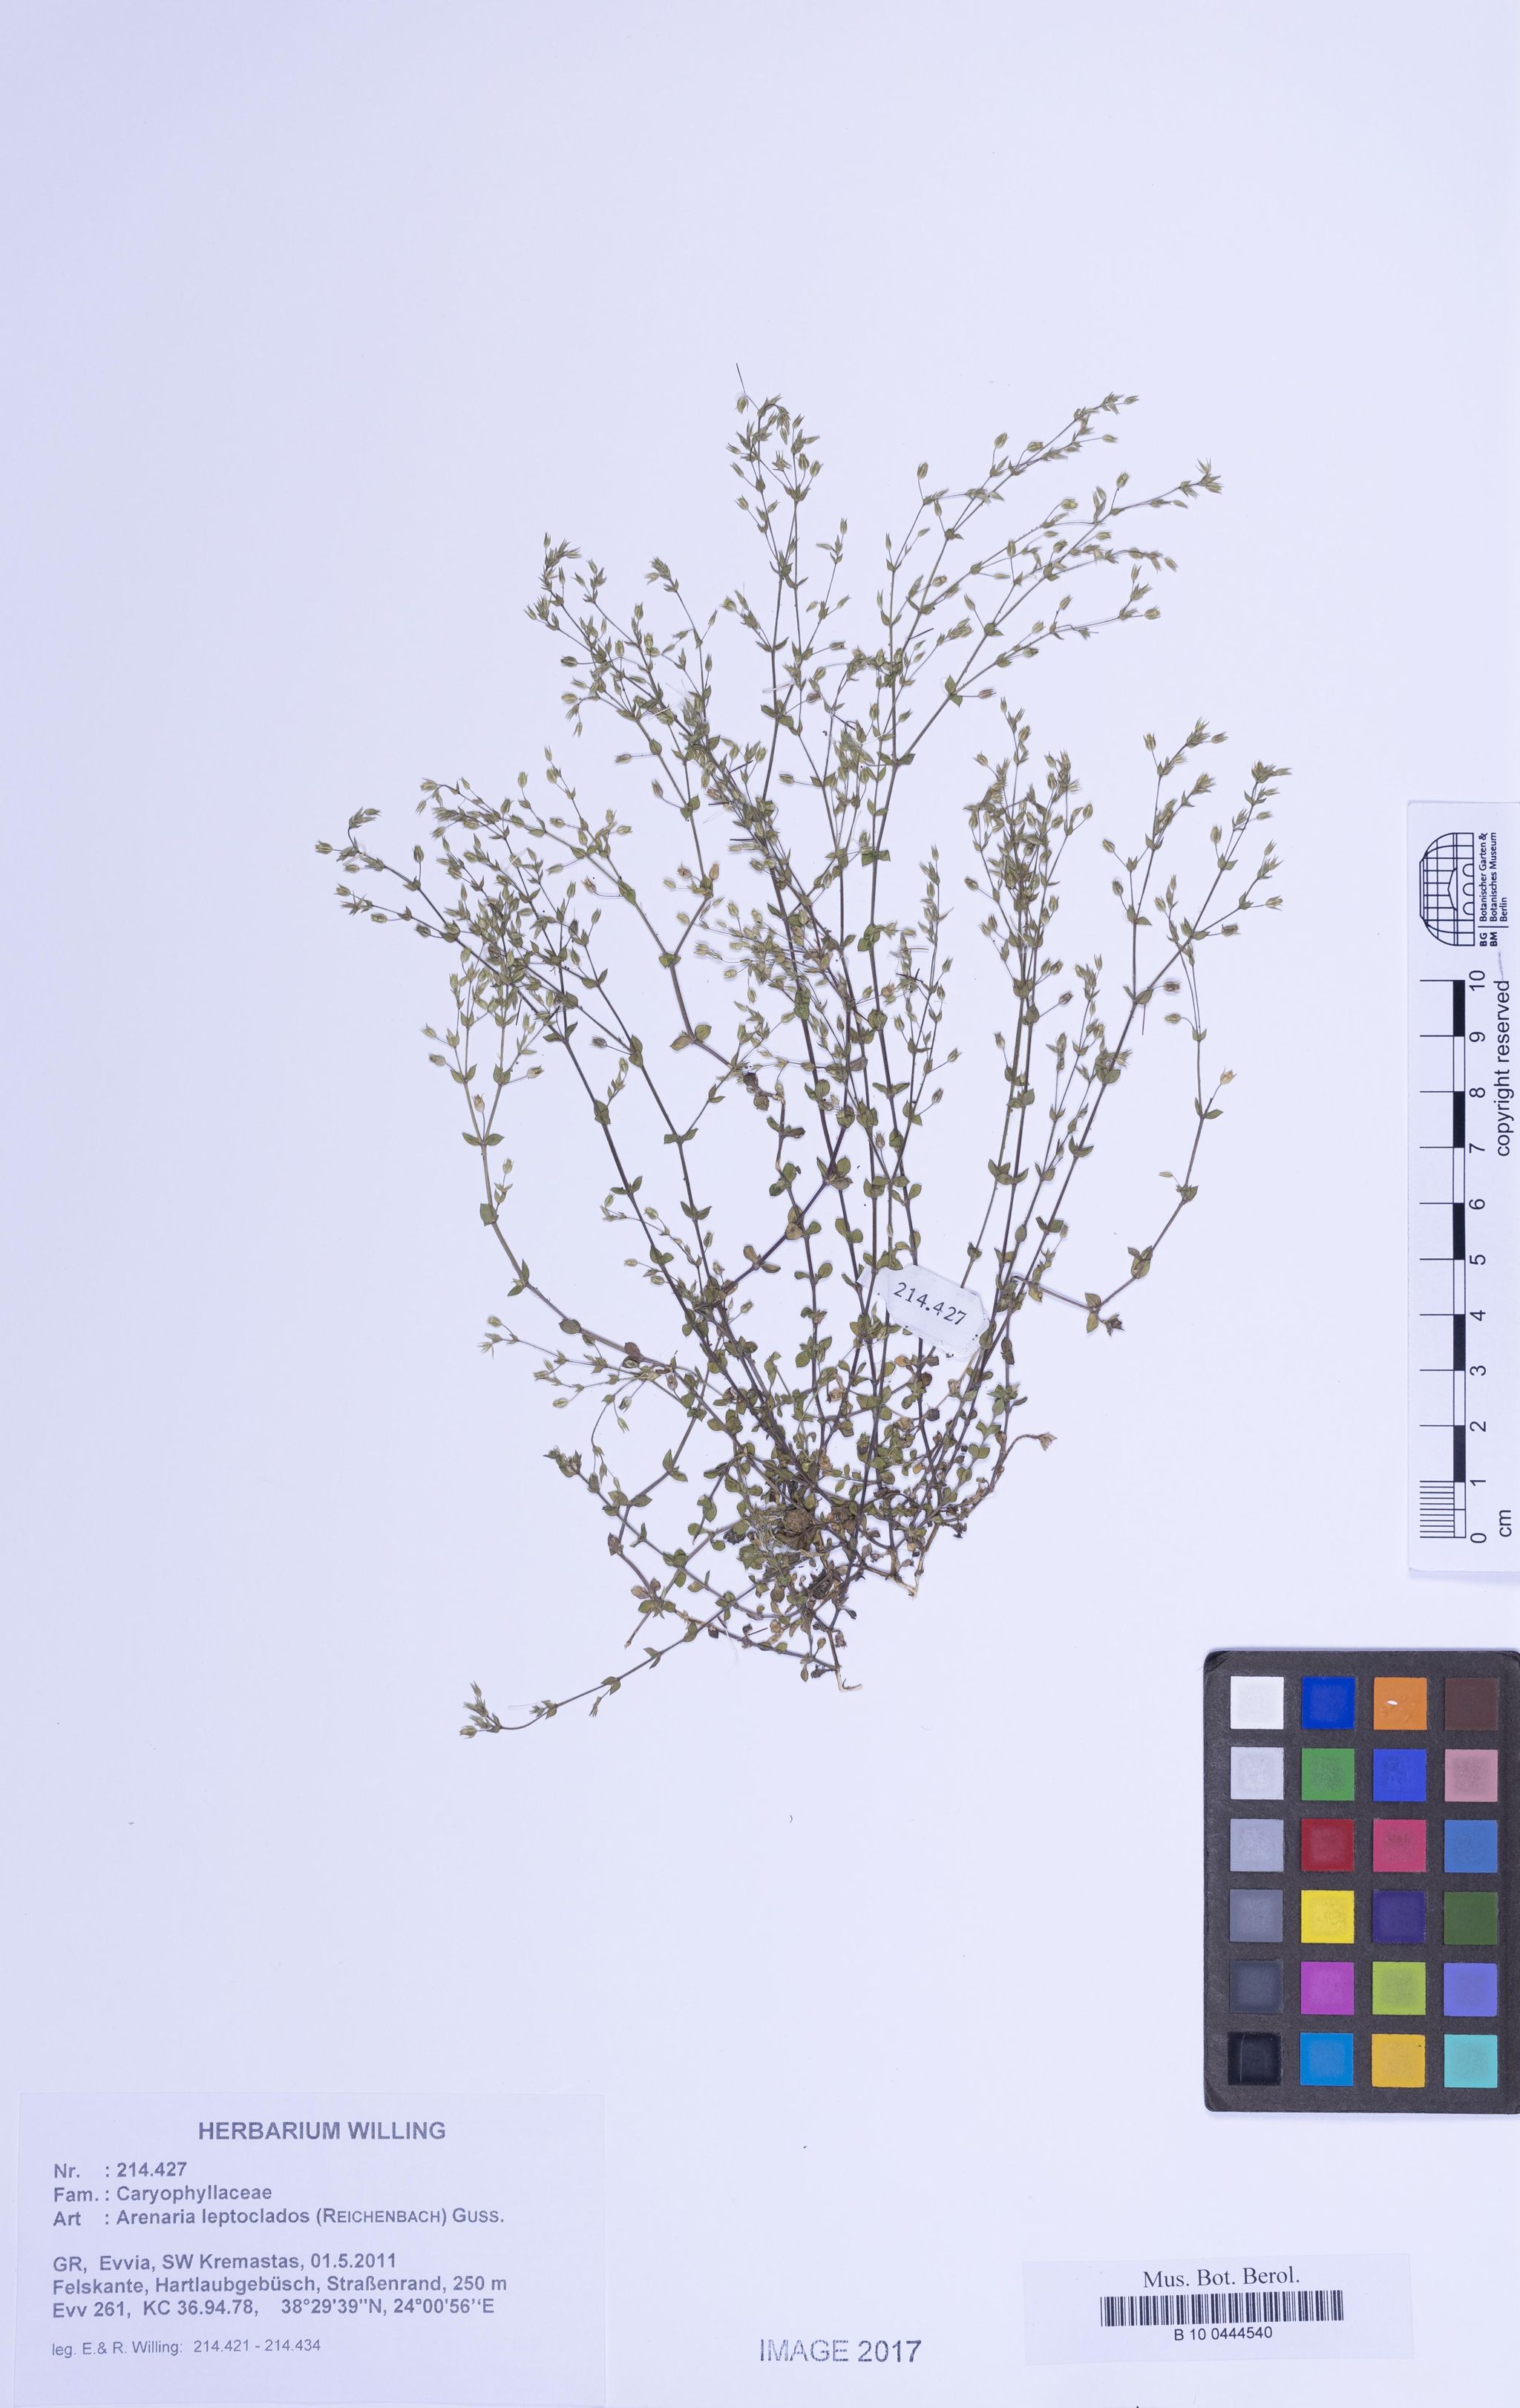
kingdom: Plantae
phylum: Tracheophyta
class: Magnoliopsida
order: Caryophyllales
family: Caryophyllaceae
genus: Arenaria
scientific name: Arenaria leptoclados
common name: Thyme-leaved sandwort
